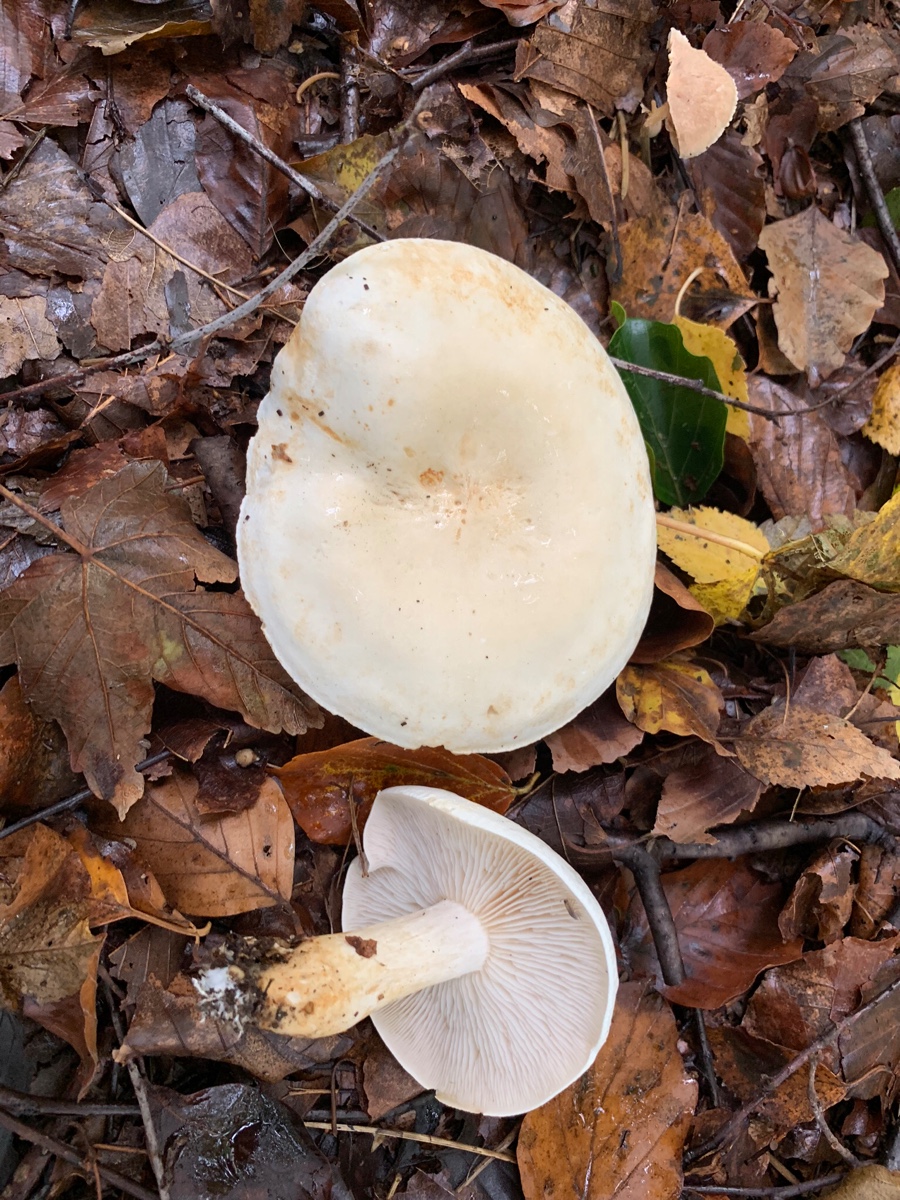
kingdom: Fungi
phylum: Basidiomycota
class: Agaricomycetes
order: Agaricales
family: Tricholomataceae
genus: Tricholoma
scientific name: Tricholoma stiparophyllum
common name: hvid ridderhat
